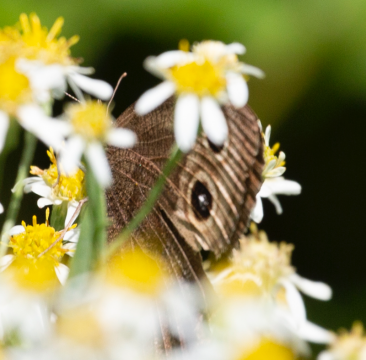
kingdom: Animalia
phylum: Arthropoda
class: Insecta
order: Lepidoptera
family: Nymphalidae
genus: Cercyonis
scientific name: Cercyonis pegala
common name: Common Wood-Nymph
